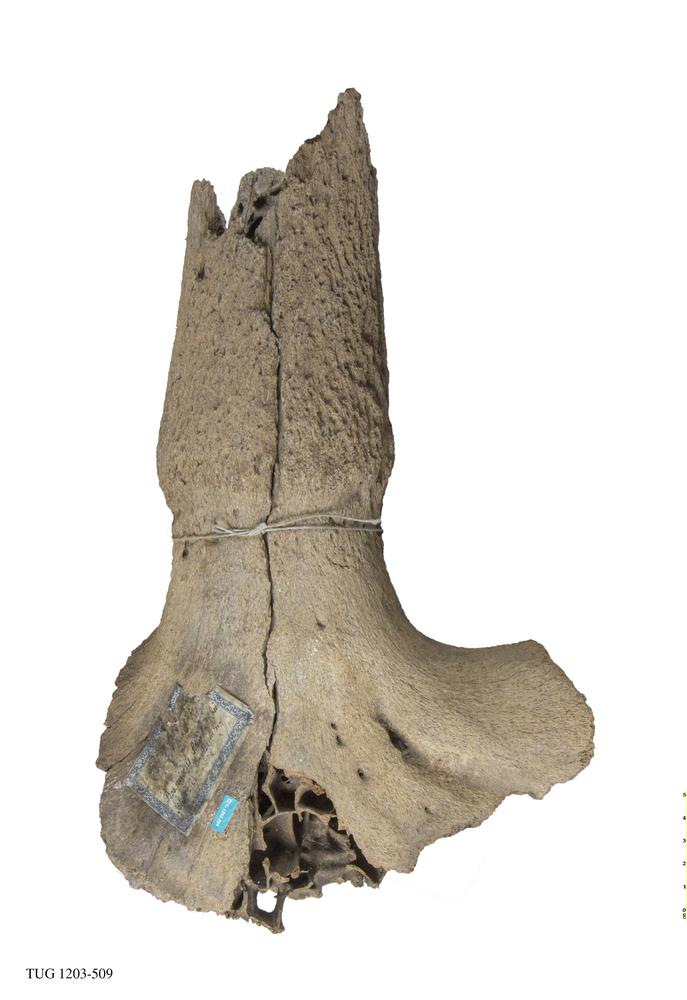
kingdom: Animalia
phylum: Chordata
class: Mammalia
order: Artiodactyla
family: Bovidae
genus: Bos
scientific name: Bos priscus
